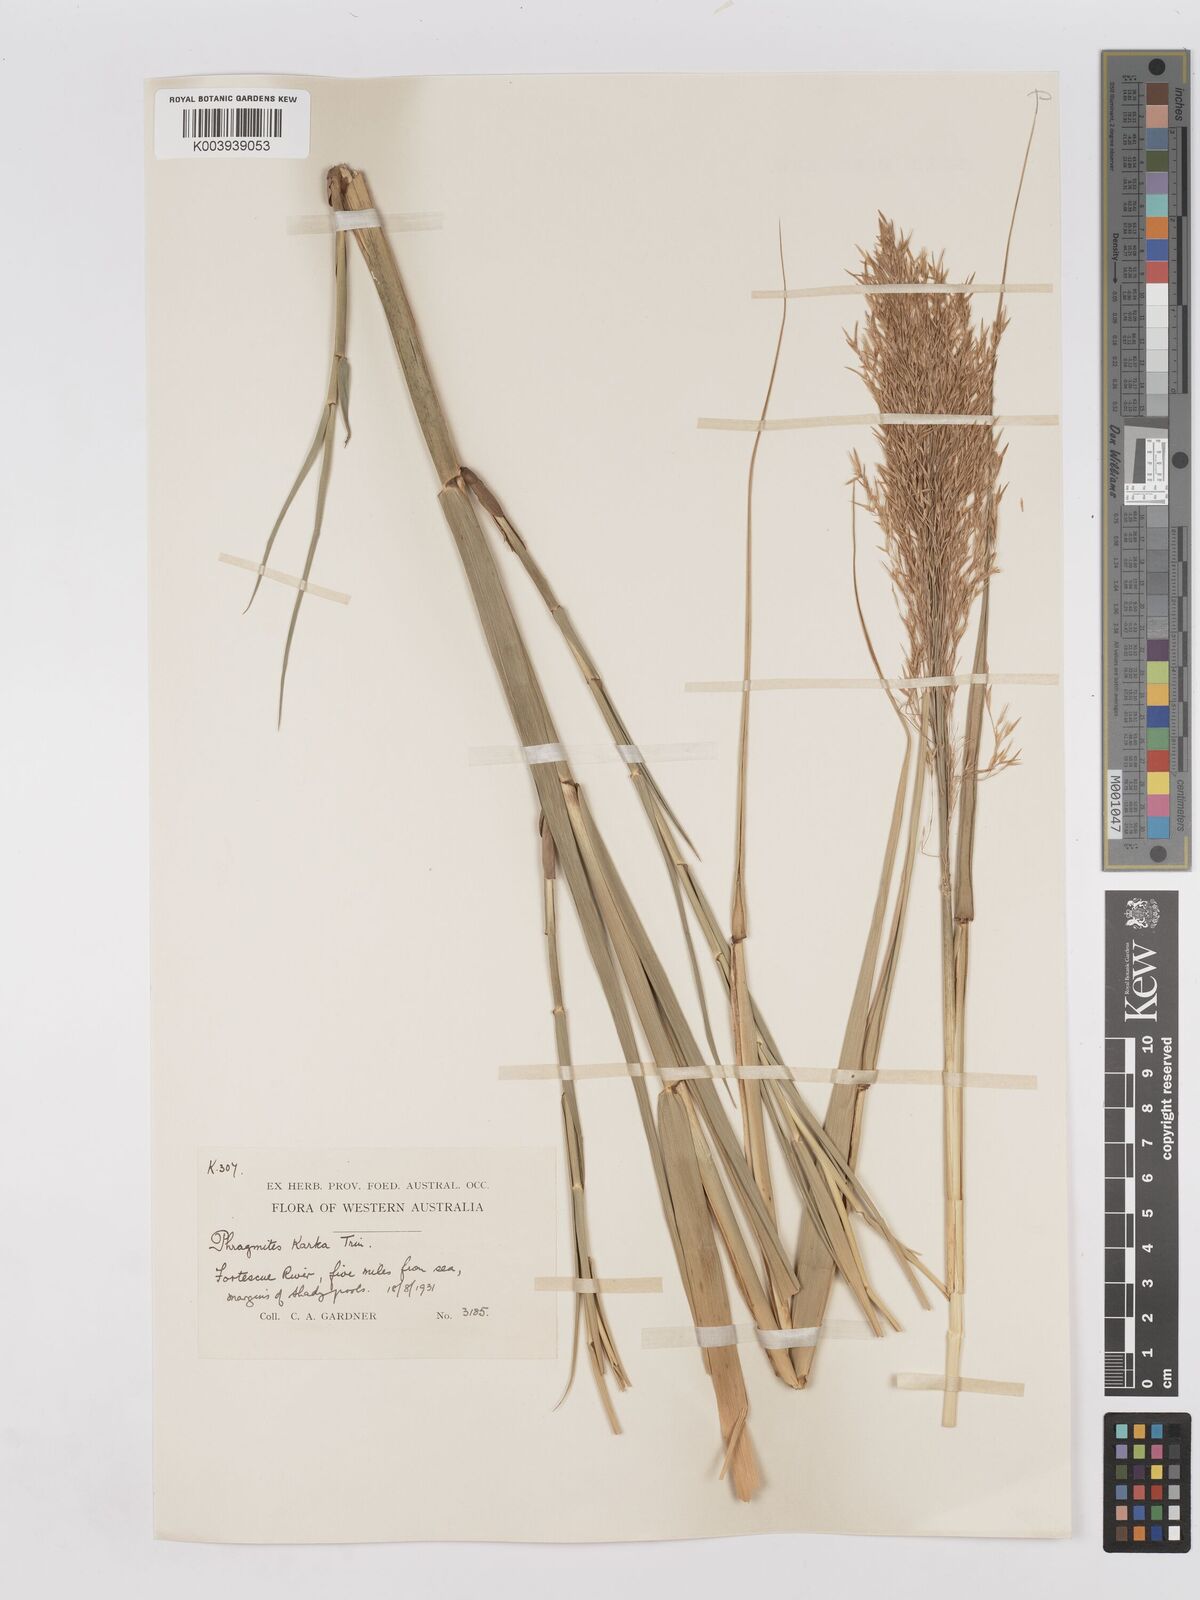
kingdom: Plantae
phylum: Tracheophyta
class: Liliopsida
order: Poales
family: Poaceae
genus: Phragmites
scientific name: Phragmites karka
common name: Tropical reed
